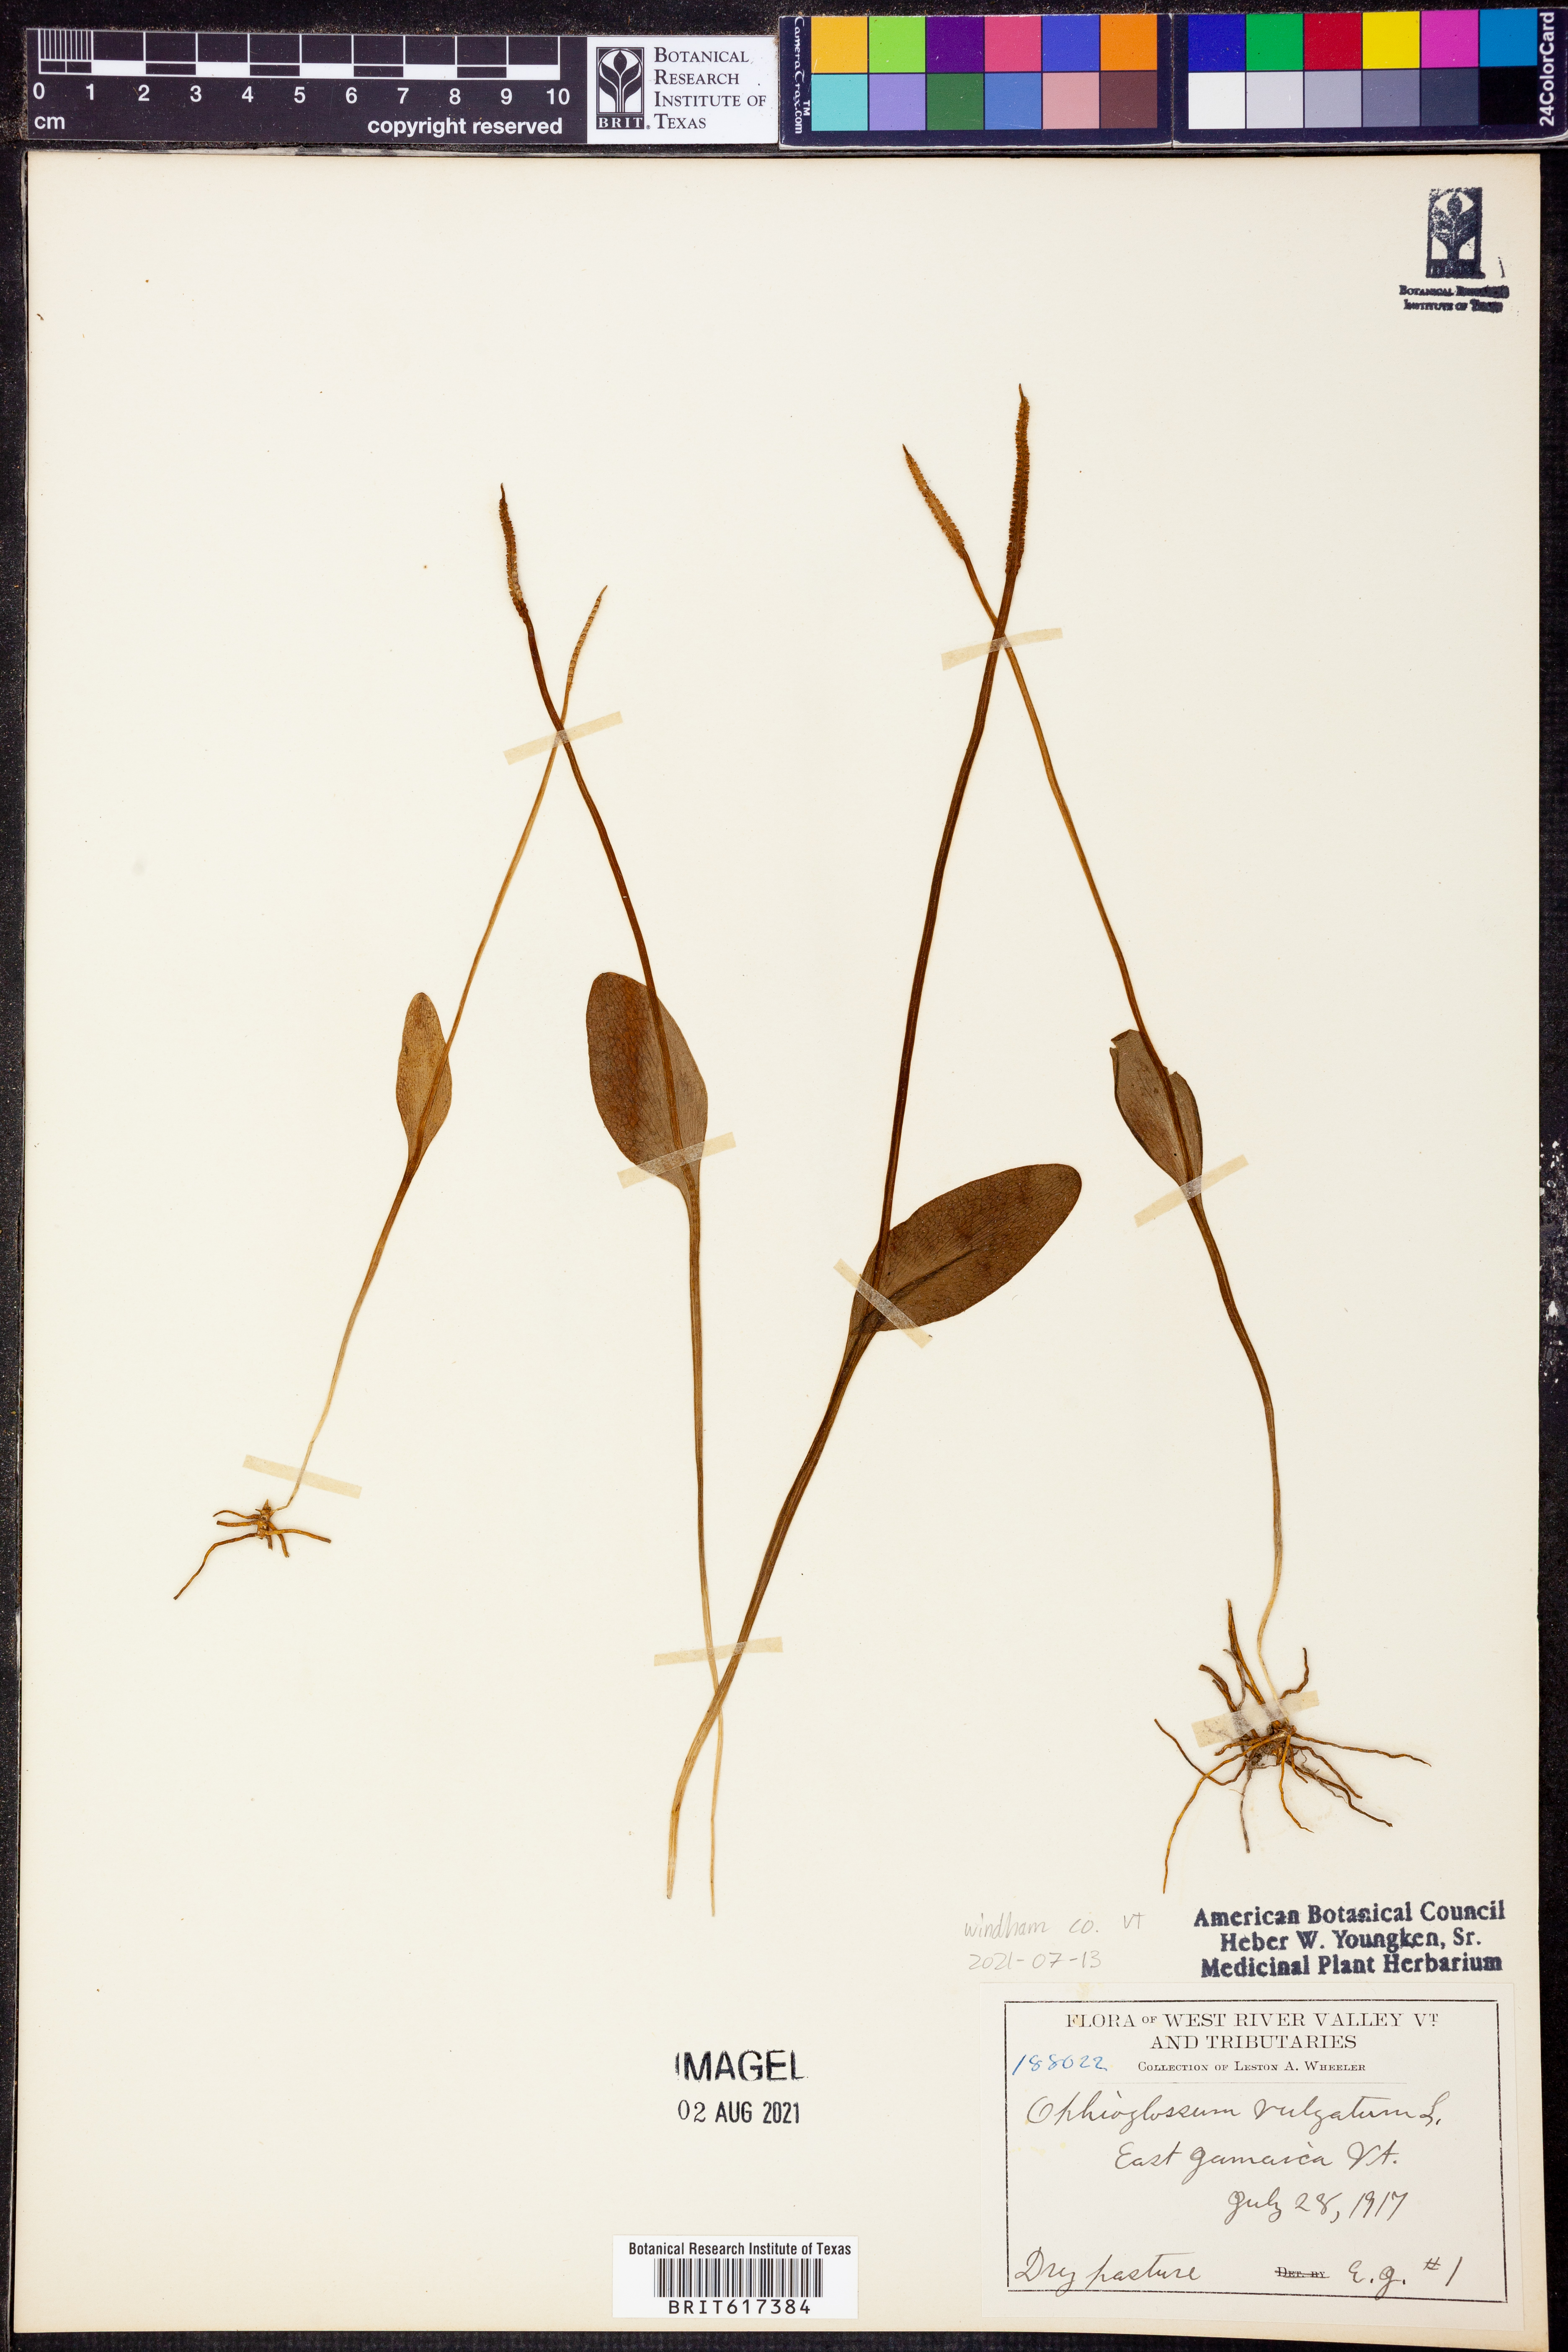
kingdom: Plantae
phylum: Tracheophyta
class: Polypodiopsida
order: Ophioglossales
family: Ophioglossaceae
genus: Ophioglossum
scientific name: Ophioglossum vulgatum
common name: Adder's-tongue
